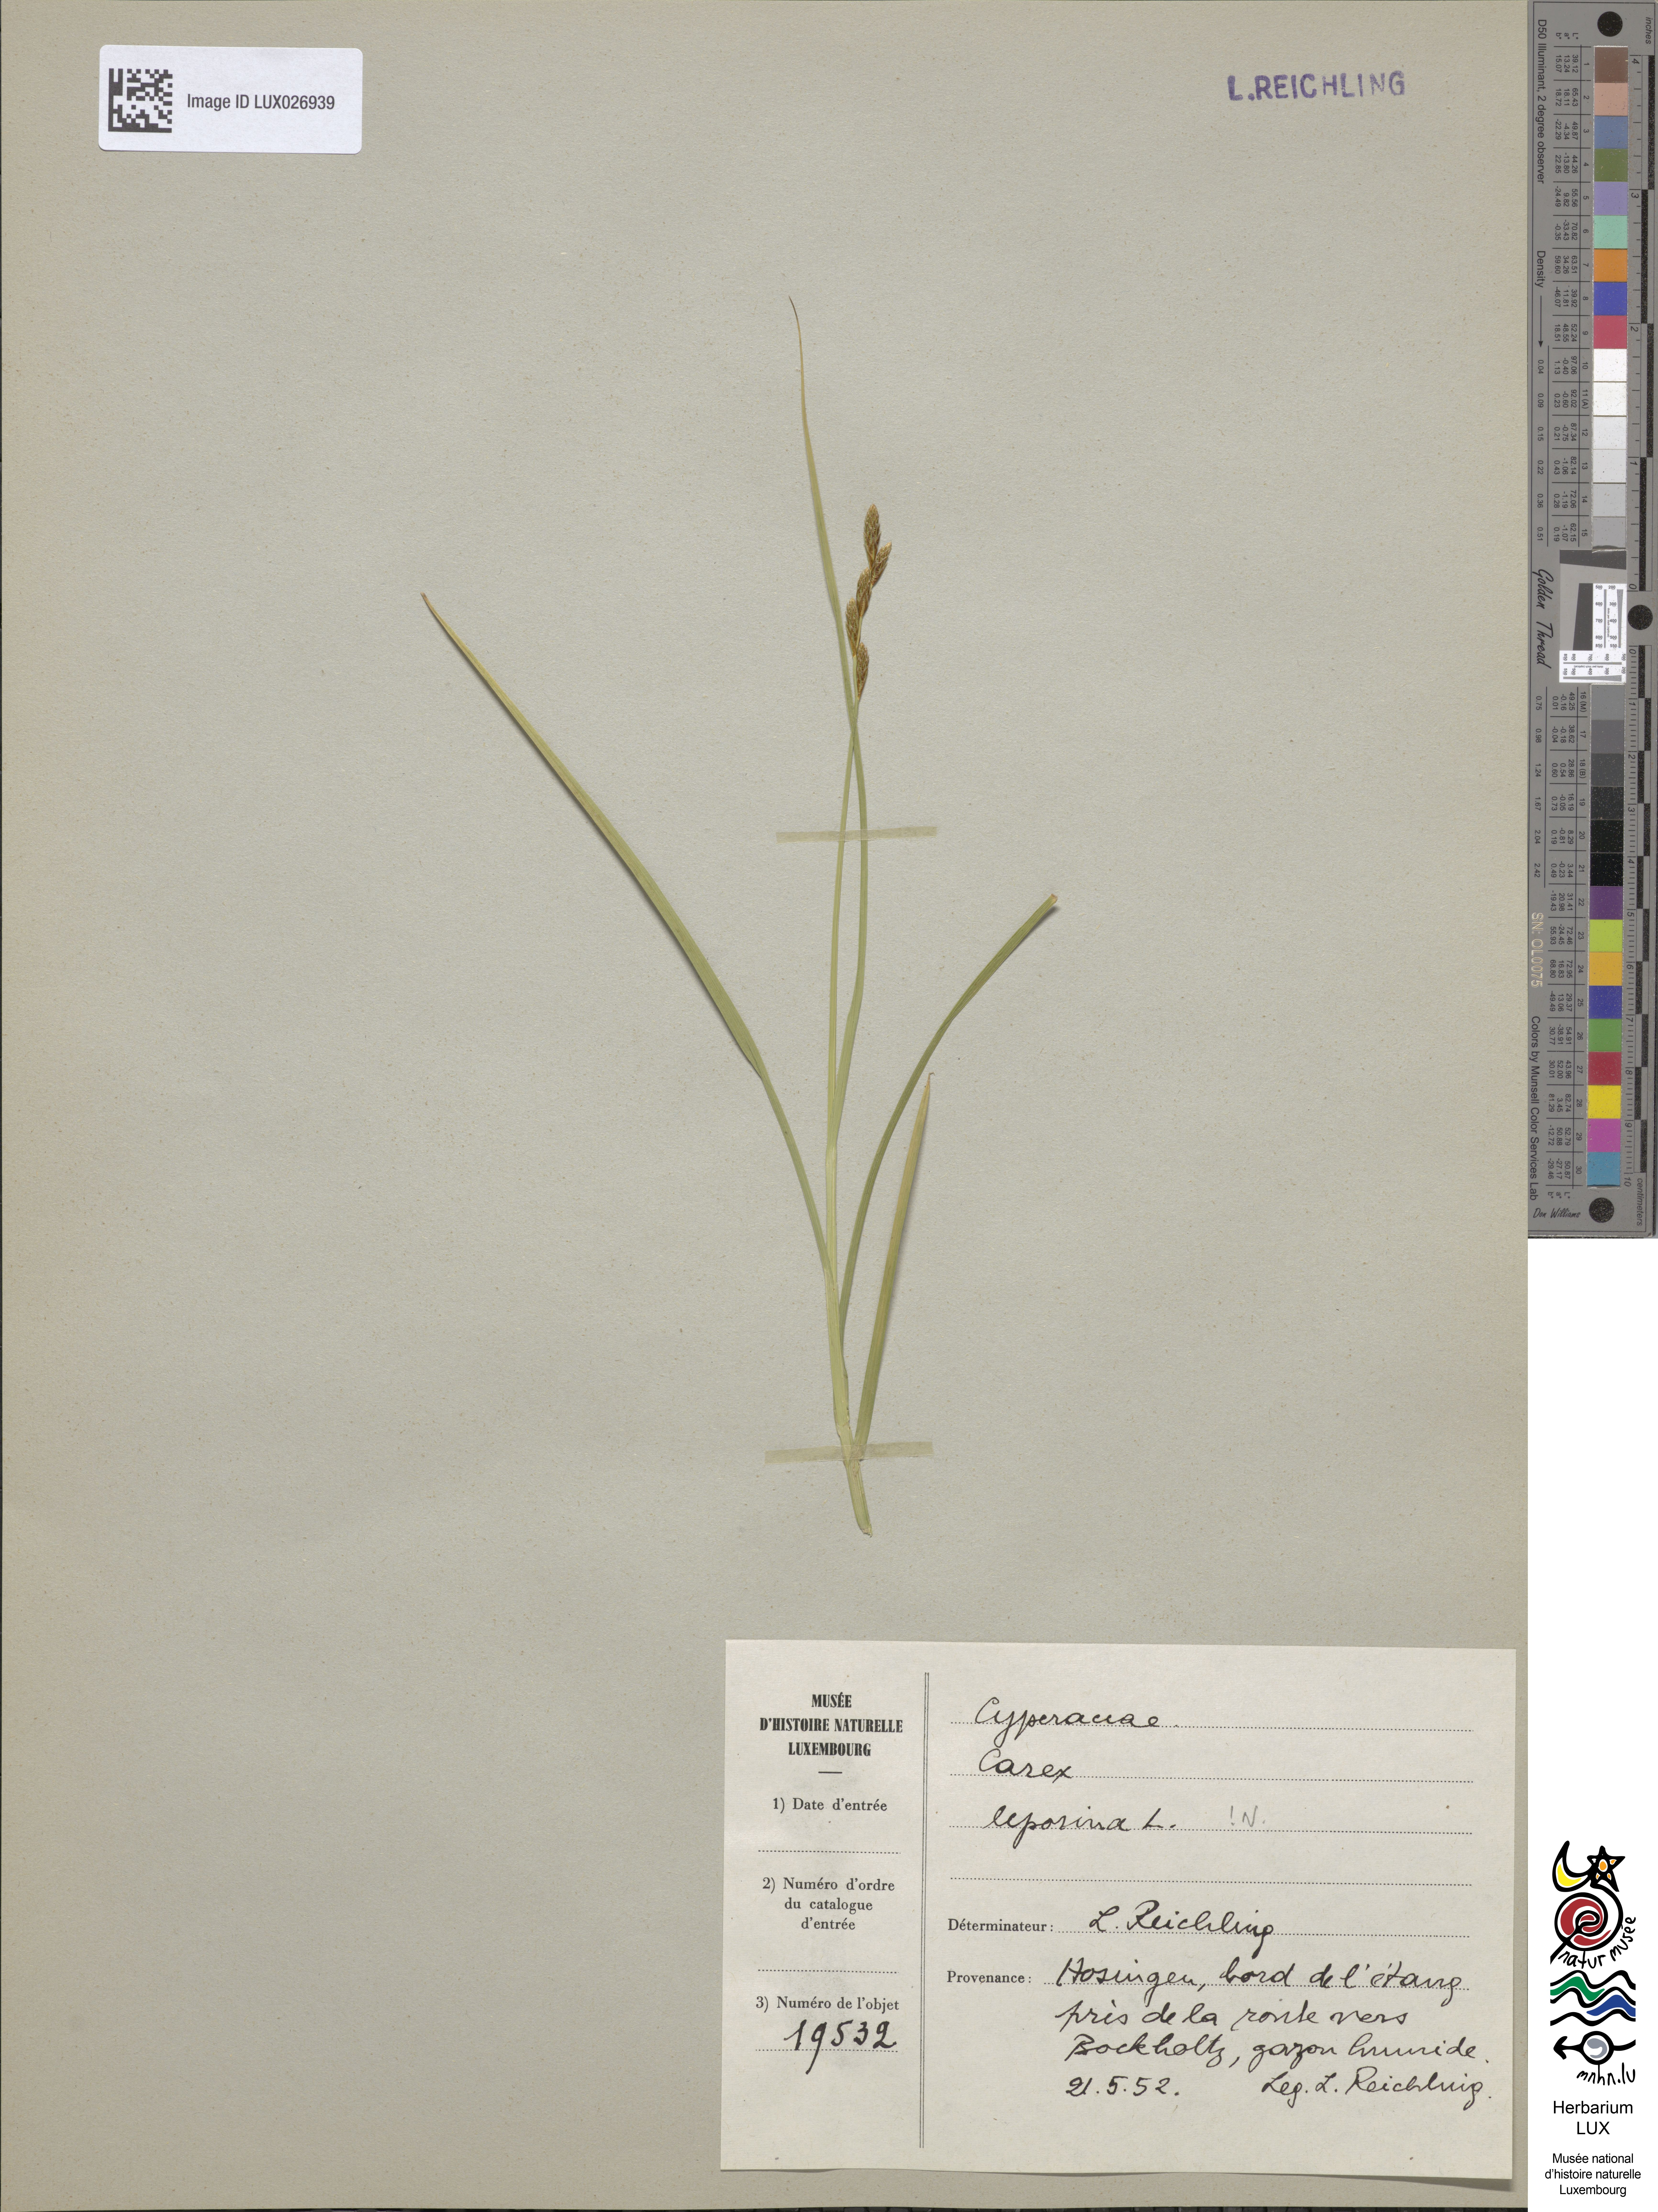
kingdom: Plantae
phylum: Tracheophyta
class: Liliopsida
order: Poales
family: Cyperaceae
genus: Carex
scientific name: Carex leporina
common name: Oval sedge
